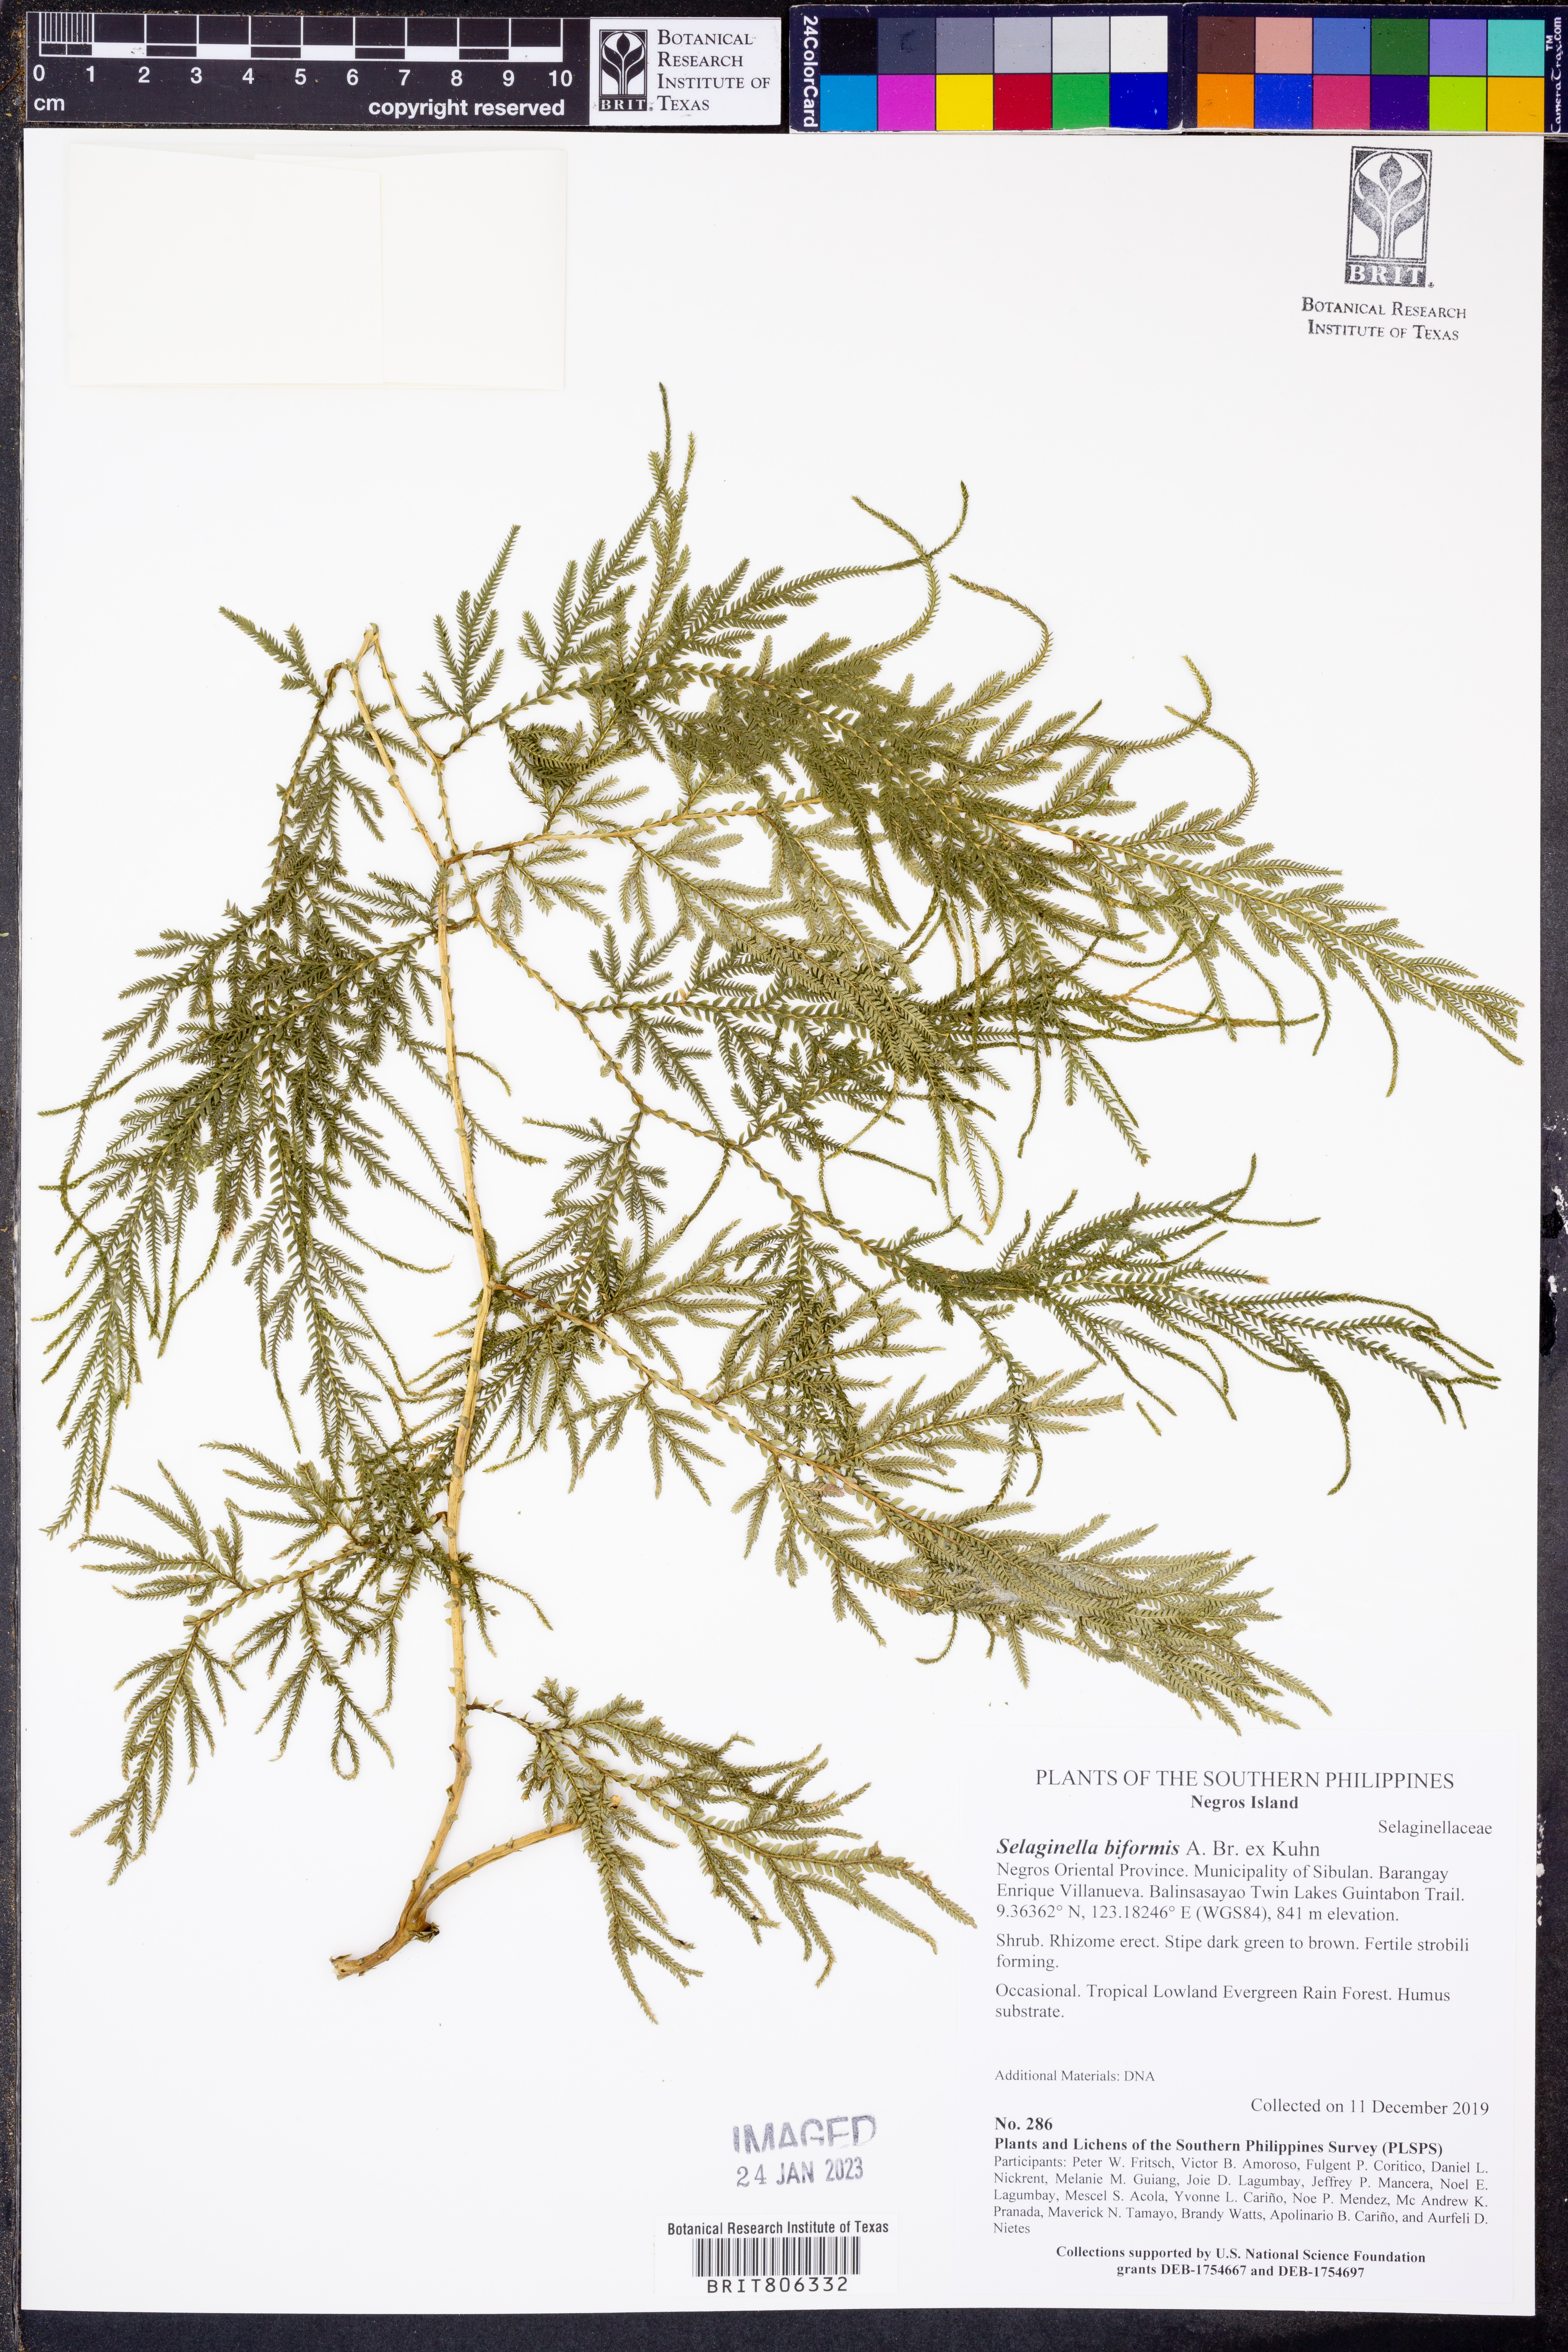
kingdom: Plantae
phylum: Tracheophyta
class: Lycopodiopsida
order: Selaginellales
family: Selaginellaceae
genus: Selaginella
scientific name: Selaginella biformis
